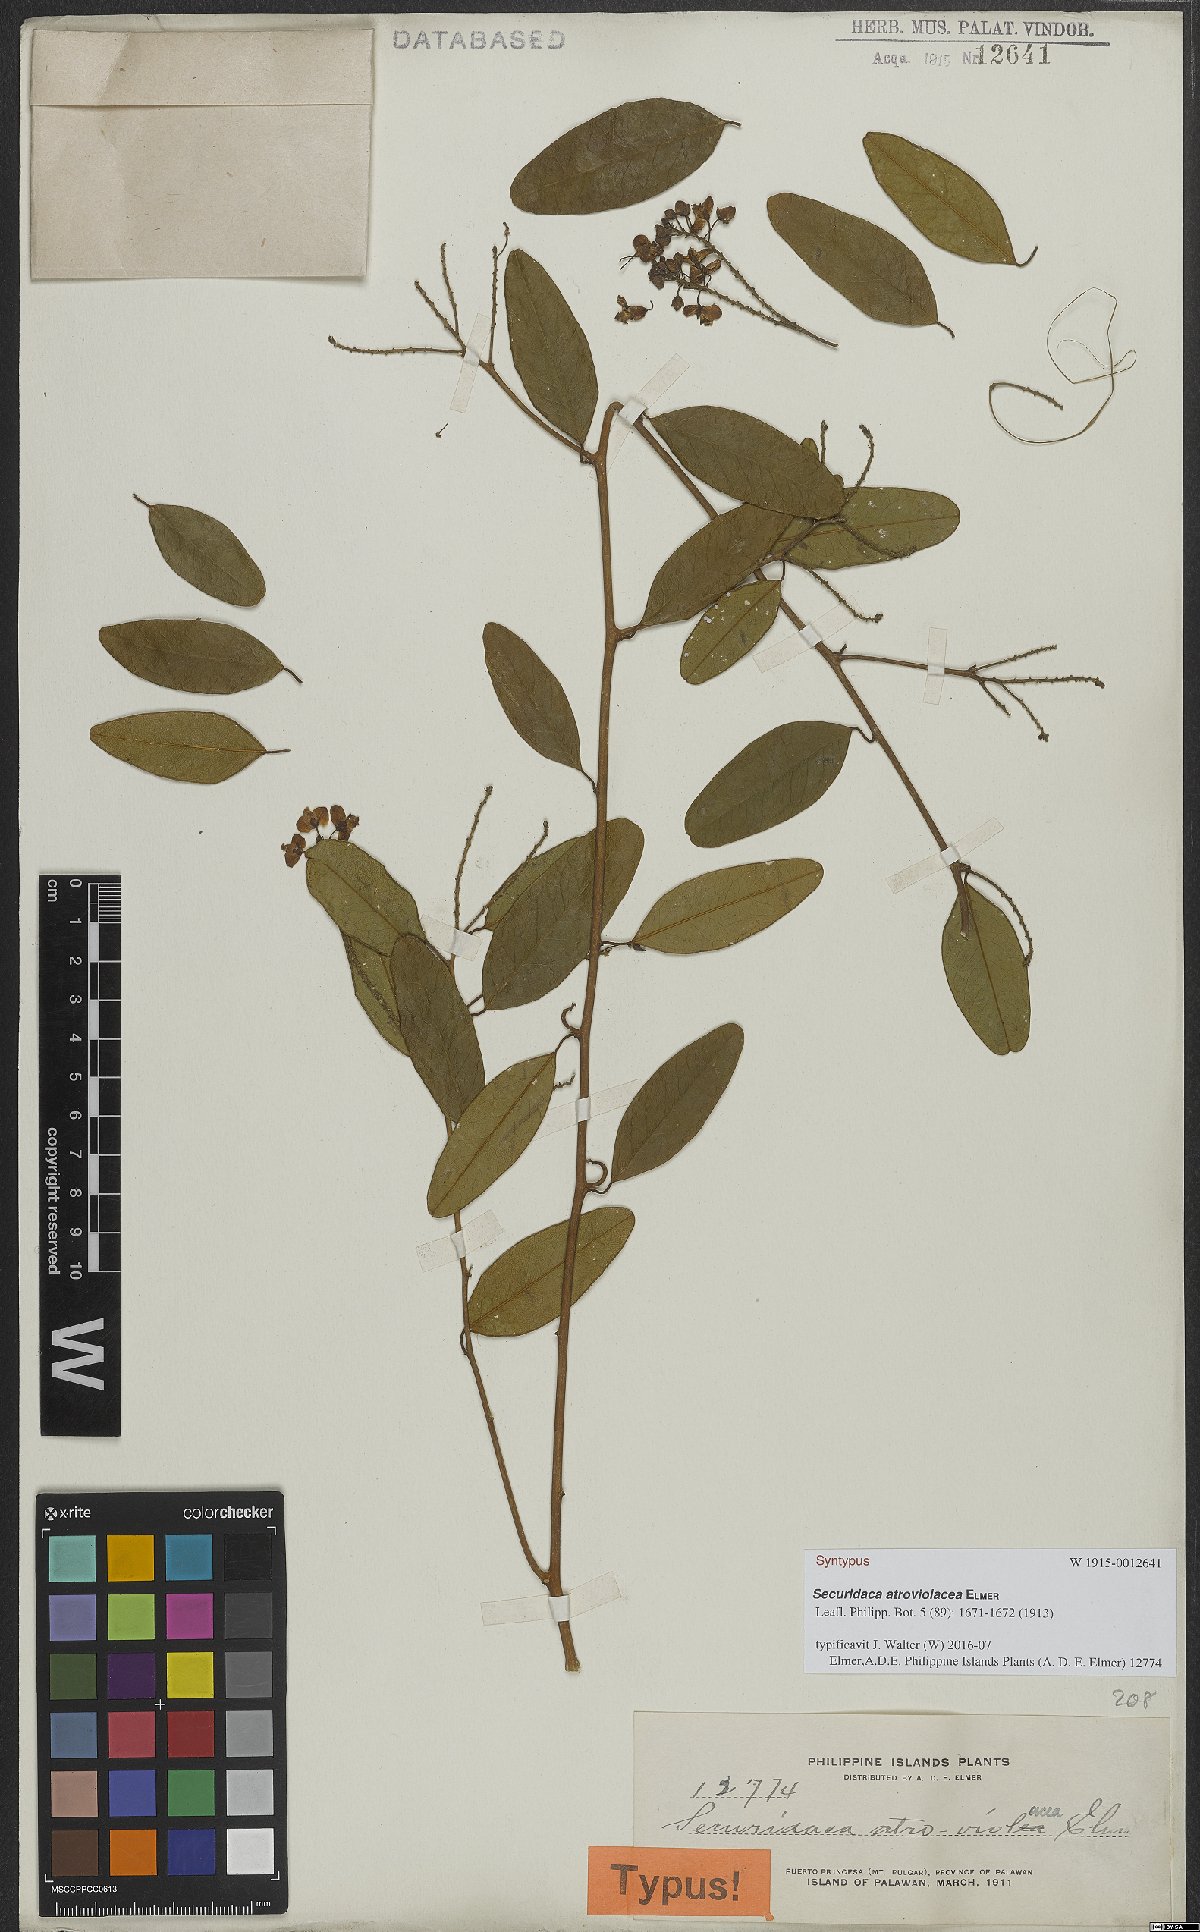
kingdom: Plantae
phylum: Tracheophyta
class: Magnoliopsida
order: Fabales
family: Polygalaceae
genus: Securidaca
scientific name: Securidaca atroviolacea
